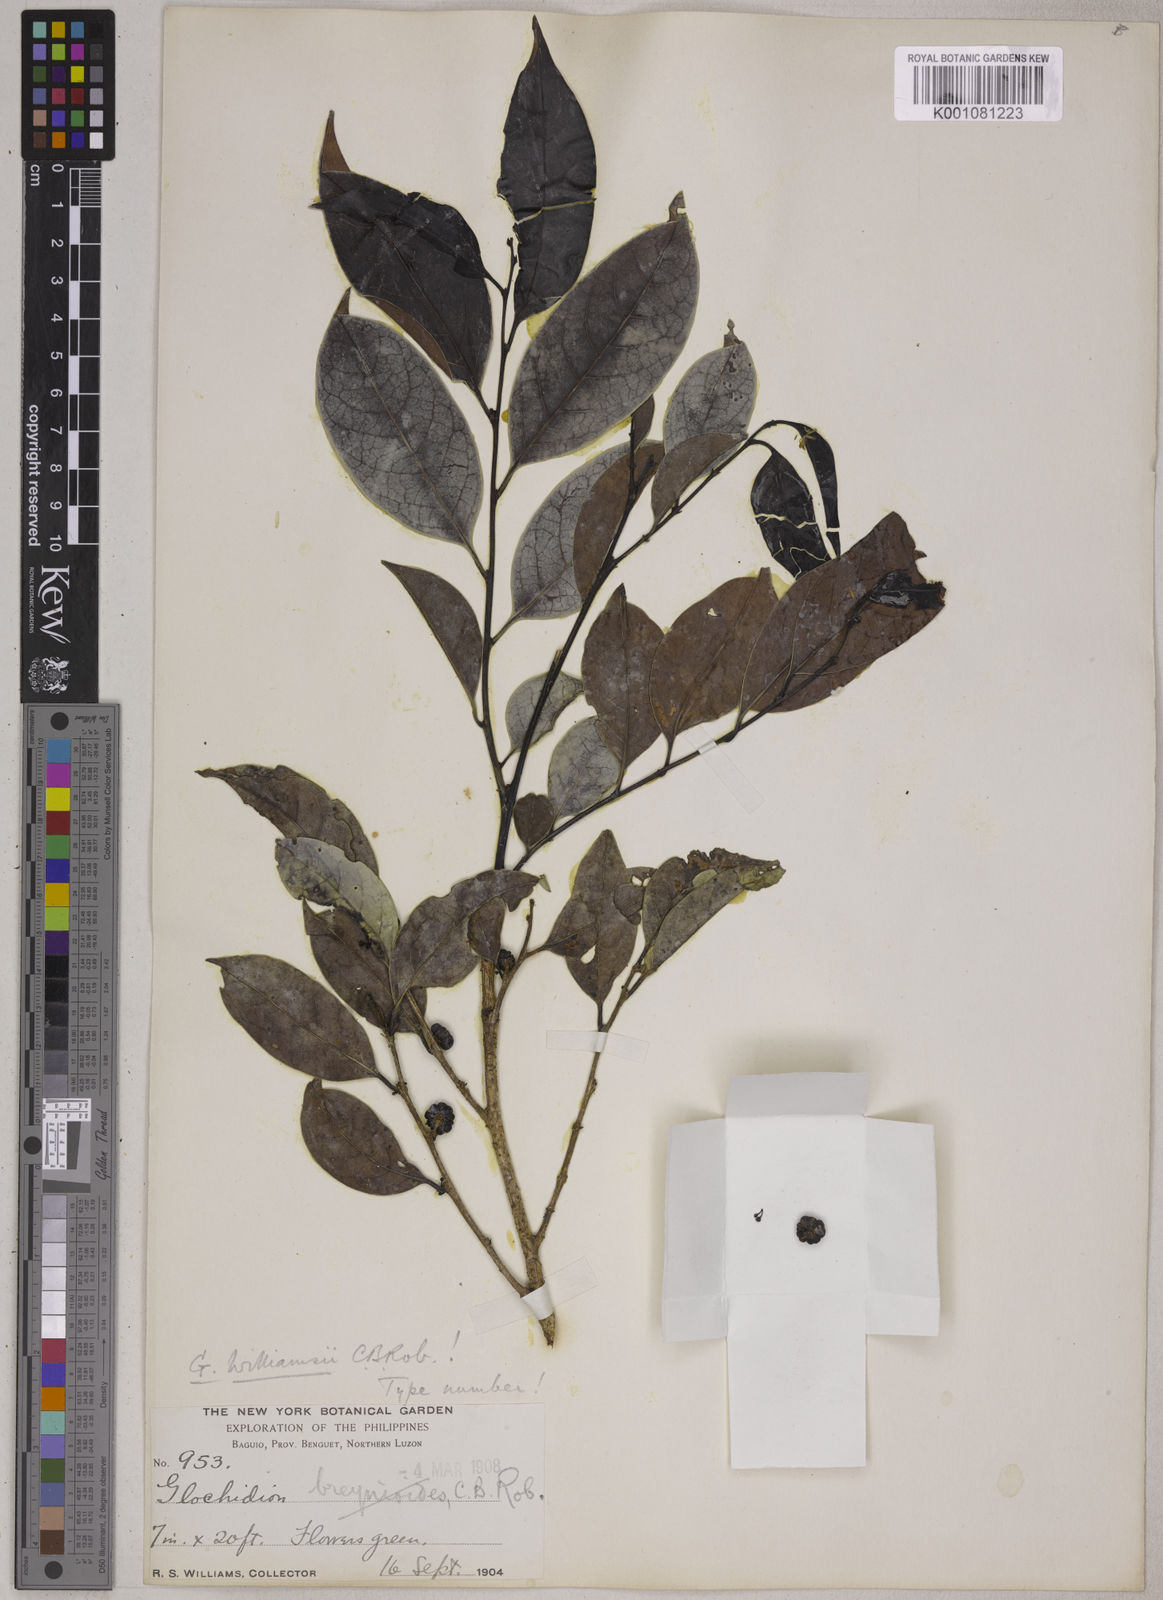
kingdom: Plantae
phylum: Tracheophyta
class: Magnoliopsida
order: Malpighiales
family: Phyllanthaceae
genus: Glochidion
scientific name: Glochidion williamsii
